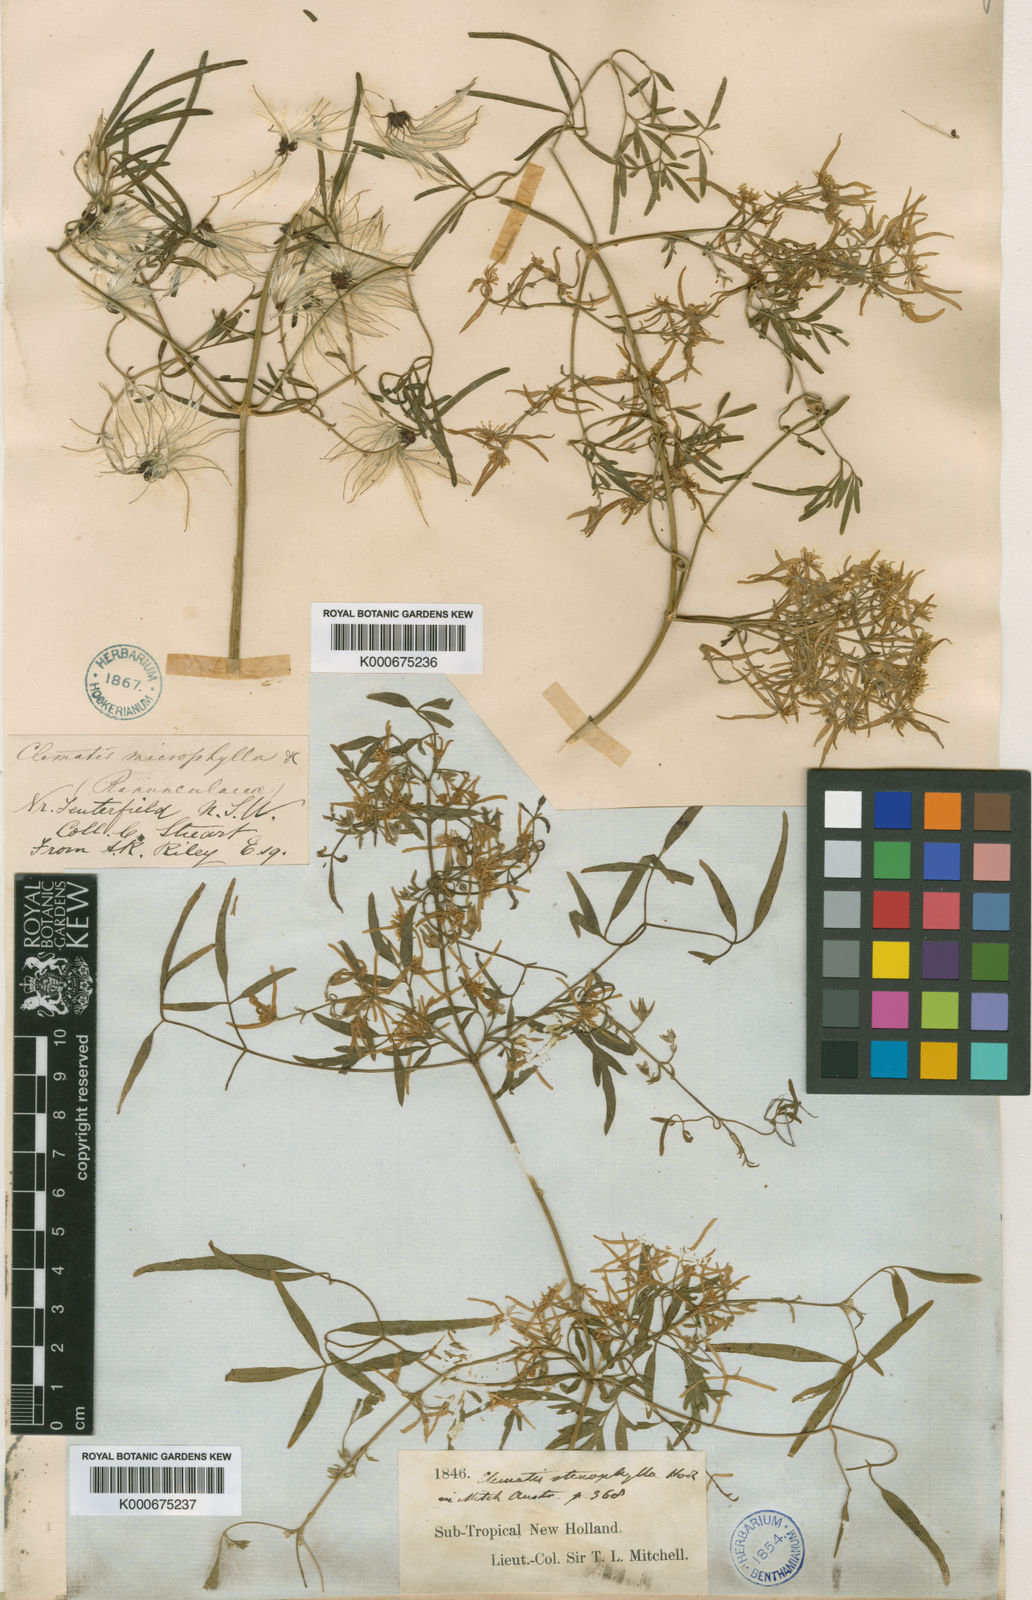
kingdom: Plantae
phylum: Tracheophyta
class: Magnoliopsida
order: Ranunculales
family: Ranunculaceae
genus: Clematis
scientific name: Clematis microphylla
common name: Headachevine
